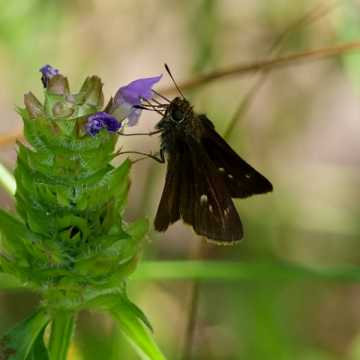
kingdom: Animalia
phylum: Arthropoda
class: Insecta
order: Lepidoptera
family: Hesperiidae
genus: Euphyes
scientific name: Euphyes vestris
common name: Dun Skipper
